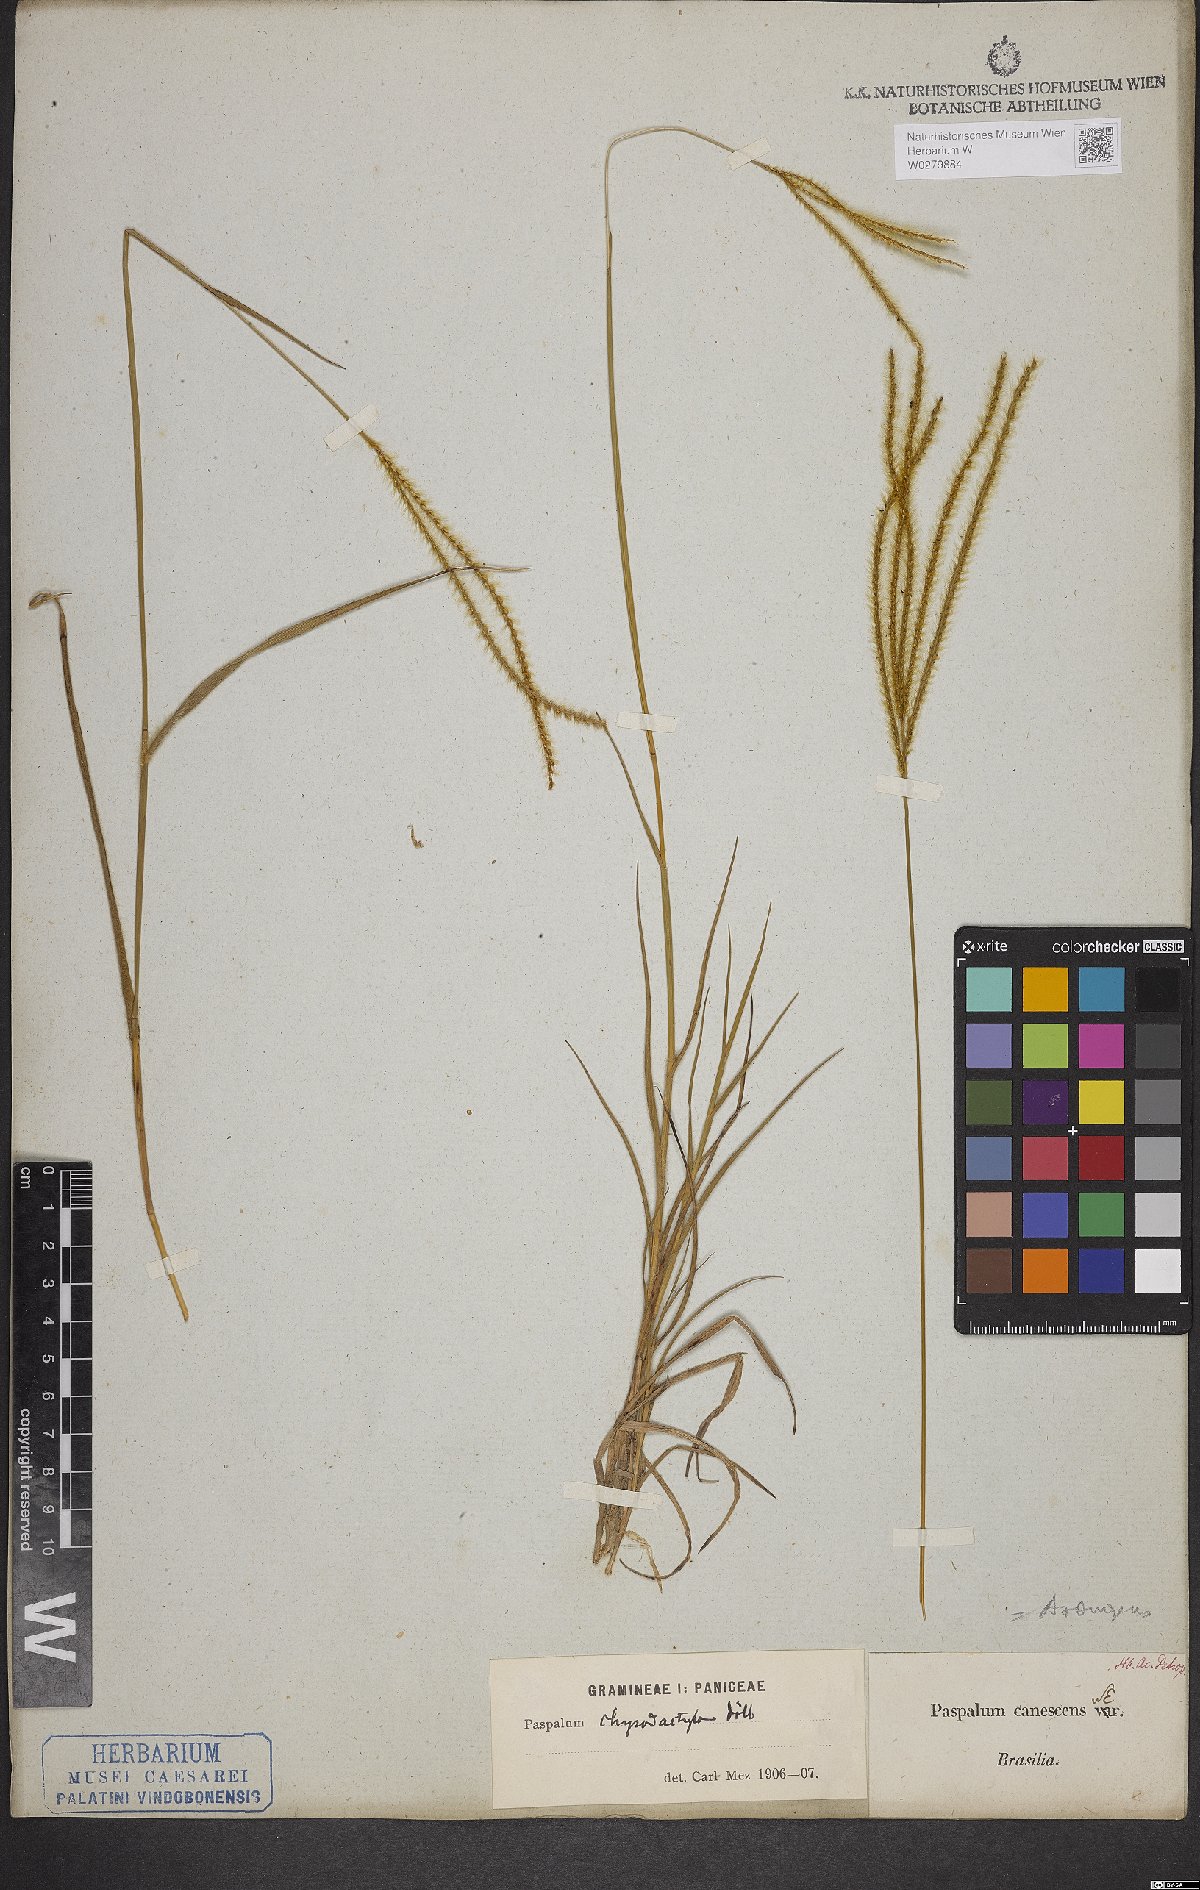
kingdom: Plantae
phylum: Tracheophyta
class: Liliopsida
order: Poales
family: Poaceae
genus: Axonopus
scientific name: Axonopus aureus
